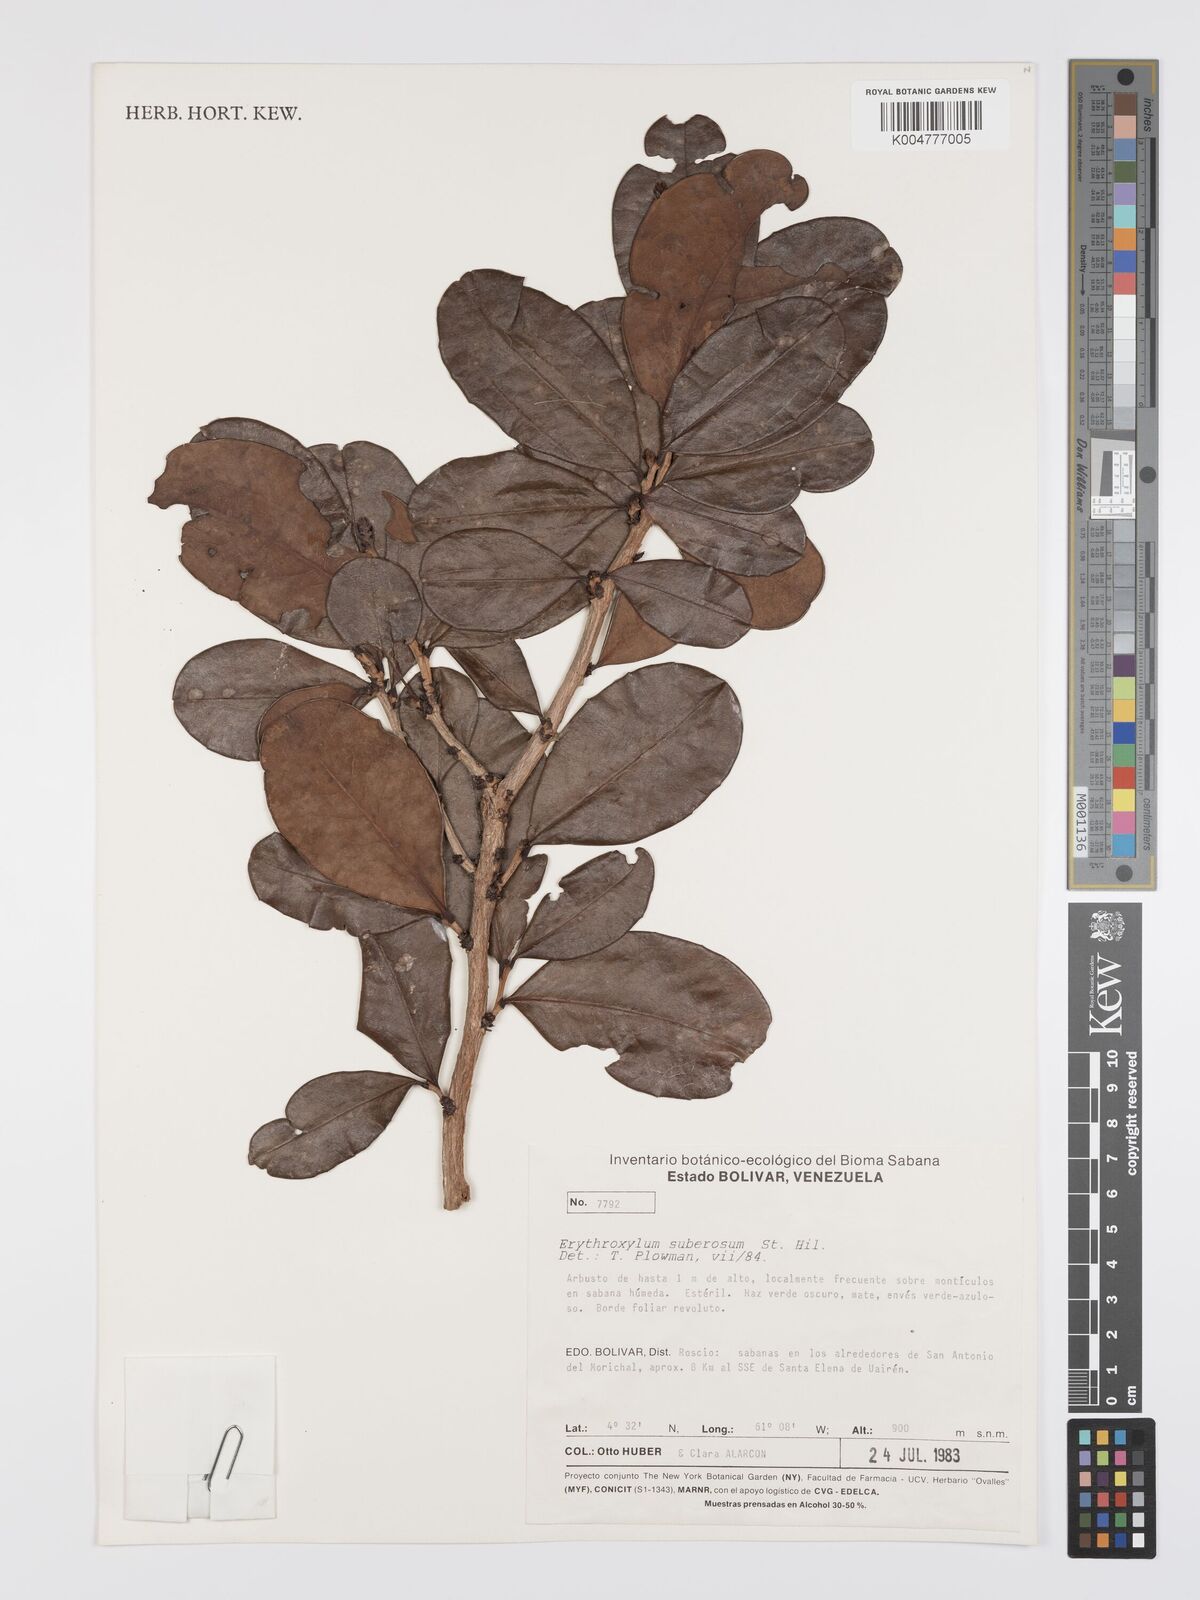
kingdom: Plantae
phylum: Tracheophyta
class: Magnoliopsida
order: Malpighiales
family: Erythroxylaceae
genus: Erythroxylum
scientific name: Erythroxylum suberosum
